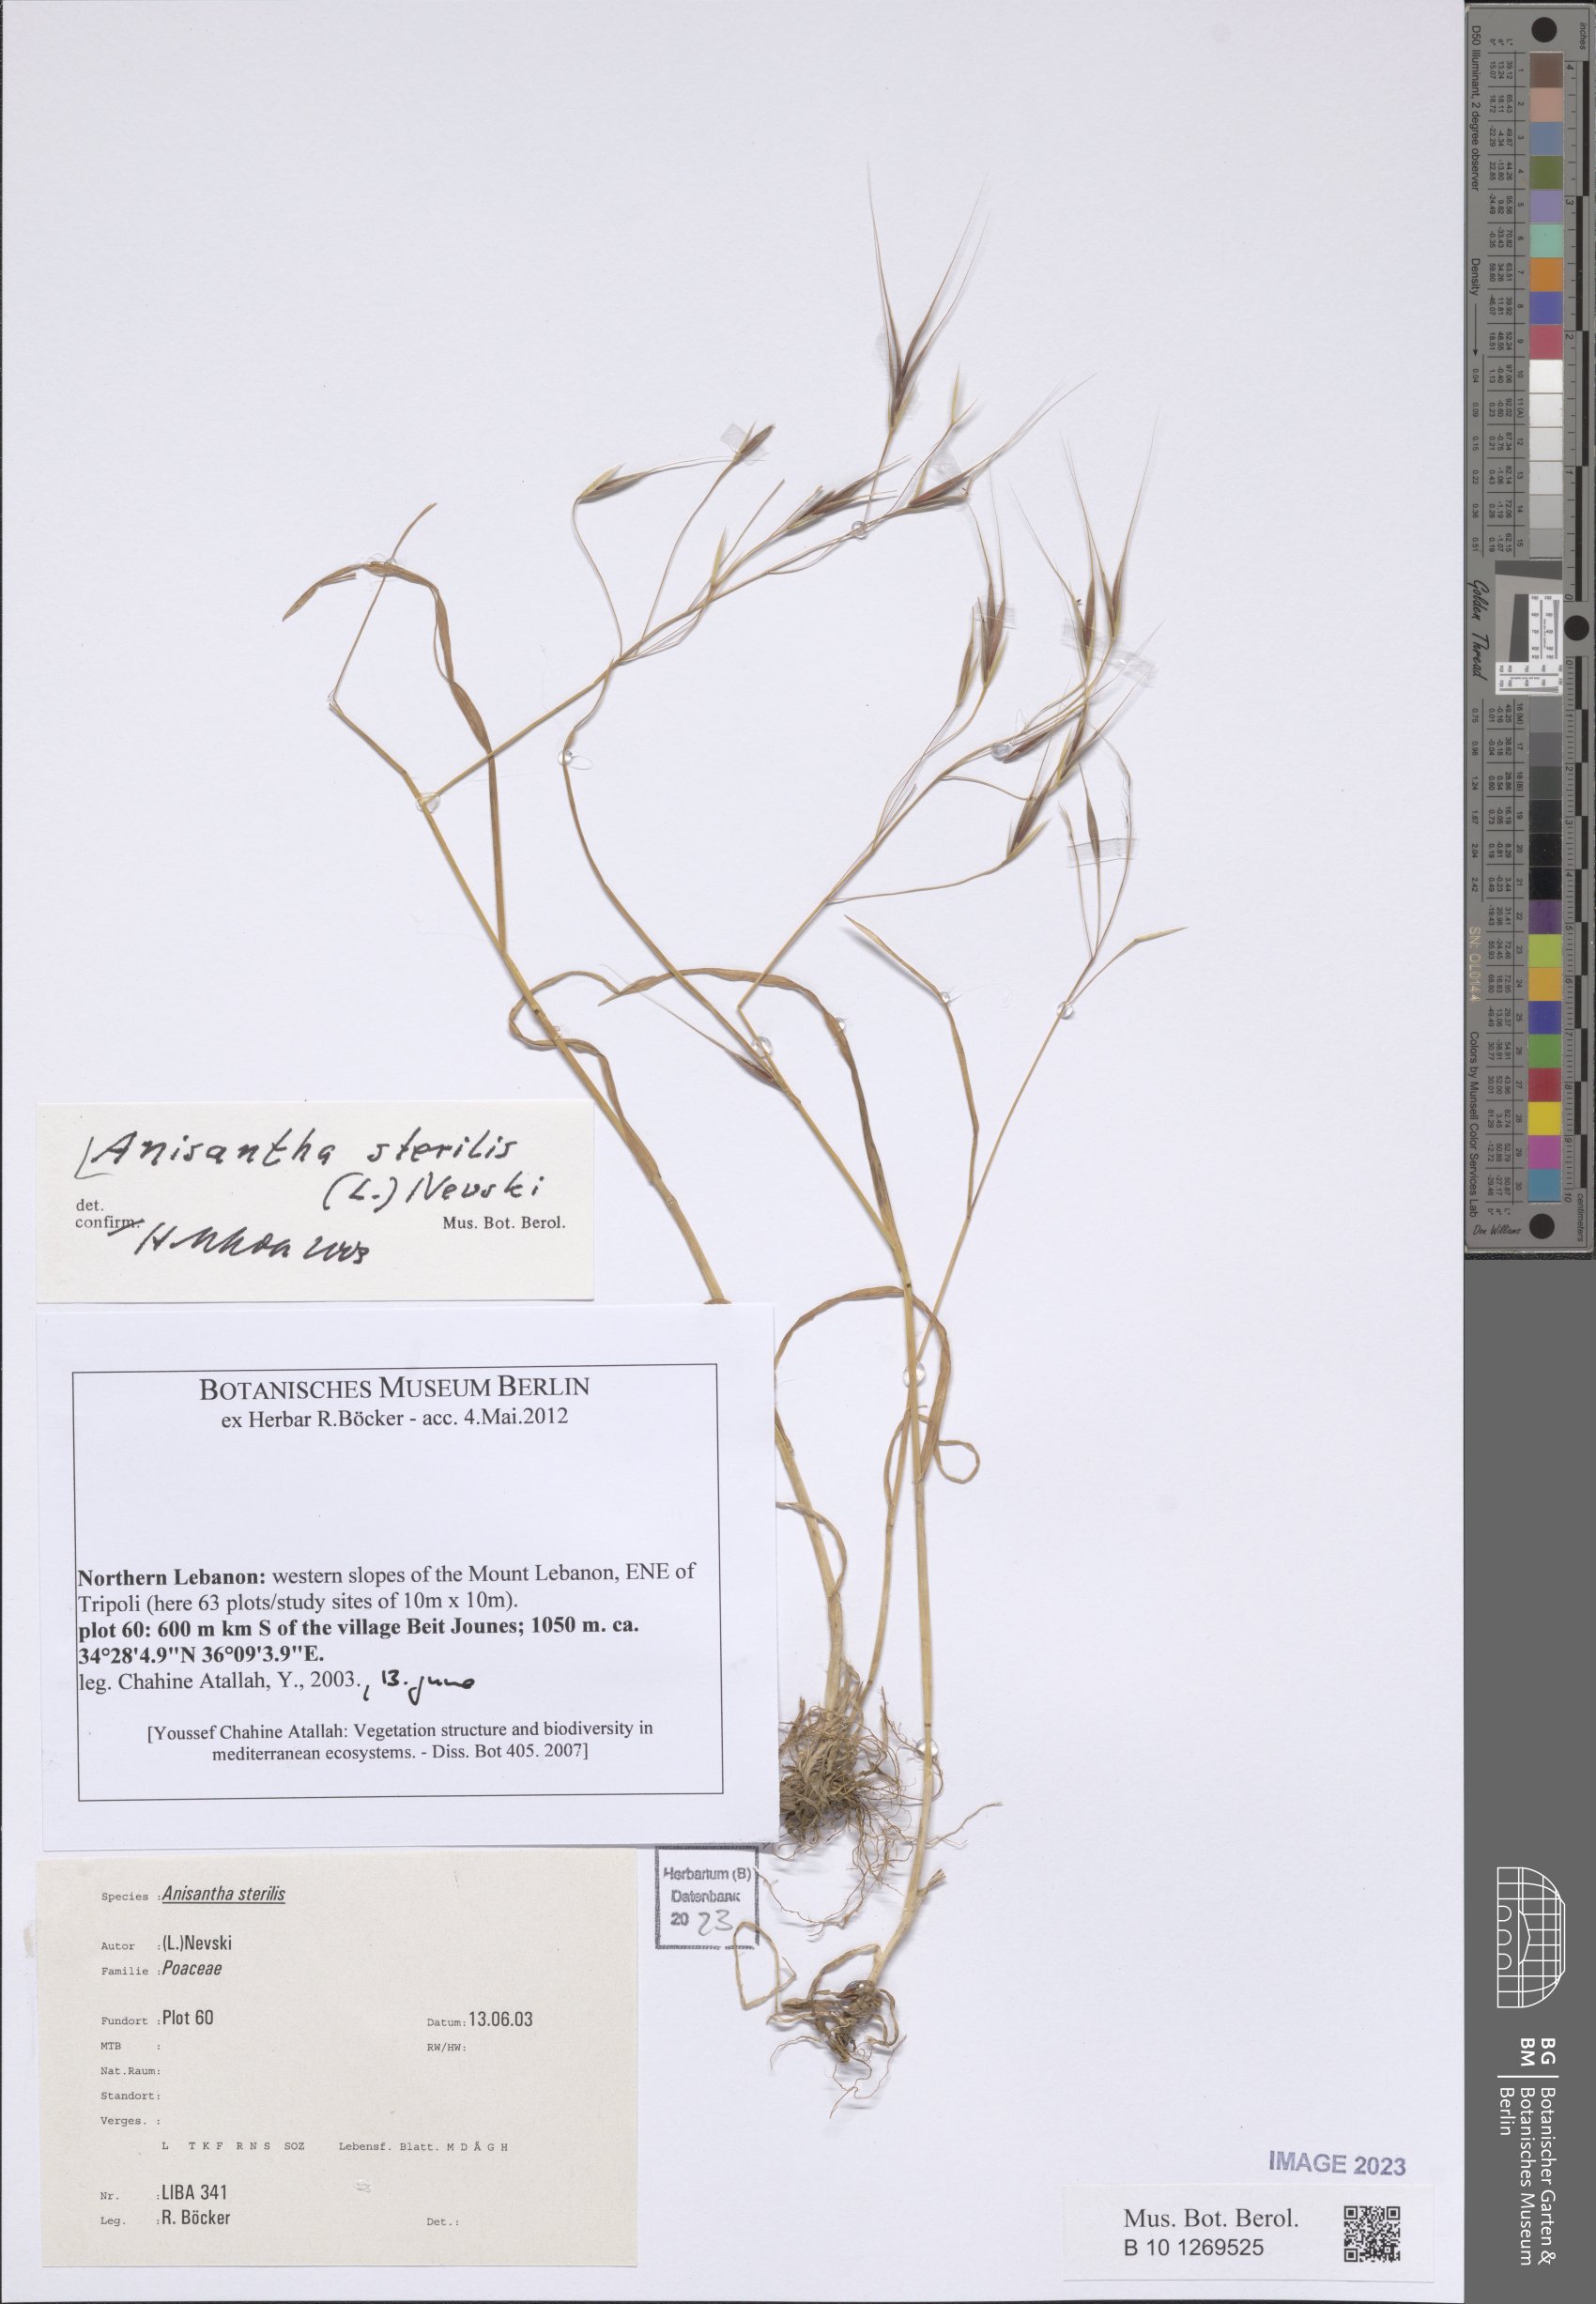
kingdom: Plantae
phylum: Tracheophyta
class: Liliopsida
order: Poales
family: Poaceae
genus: Bromus
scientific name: Bromus sterilis
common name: Poverty brome
